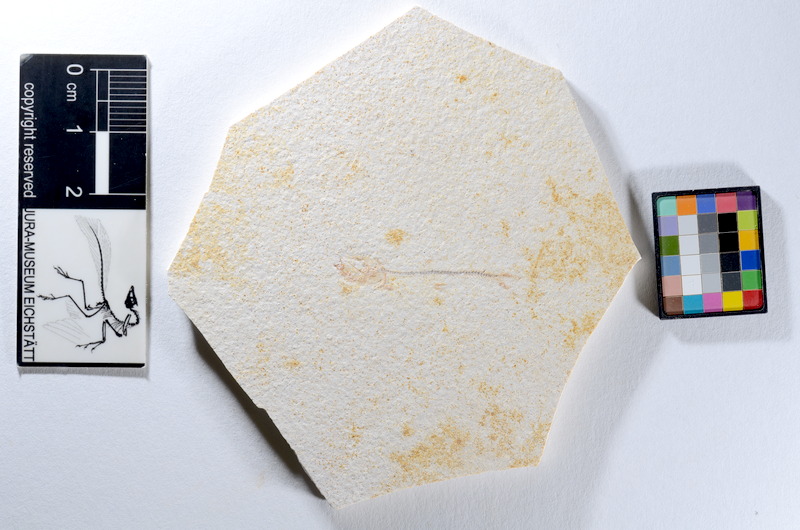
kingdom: Animalia
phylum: Chordata
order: Salmoniformes
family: Orthogonikleithridae
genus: Orthogonikleithrus
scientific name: Orthogonikleithrus hoelli
